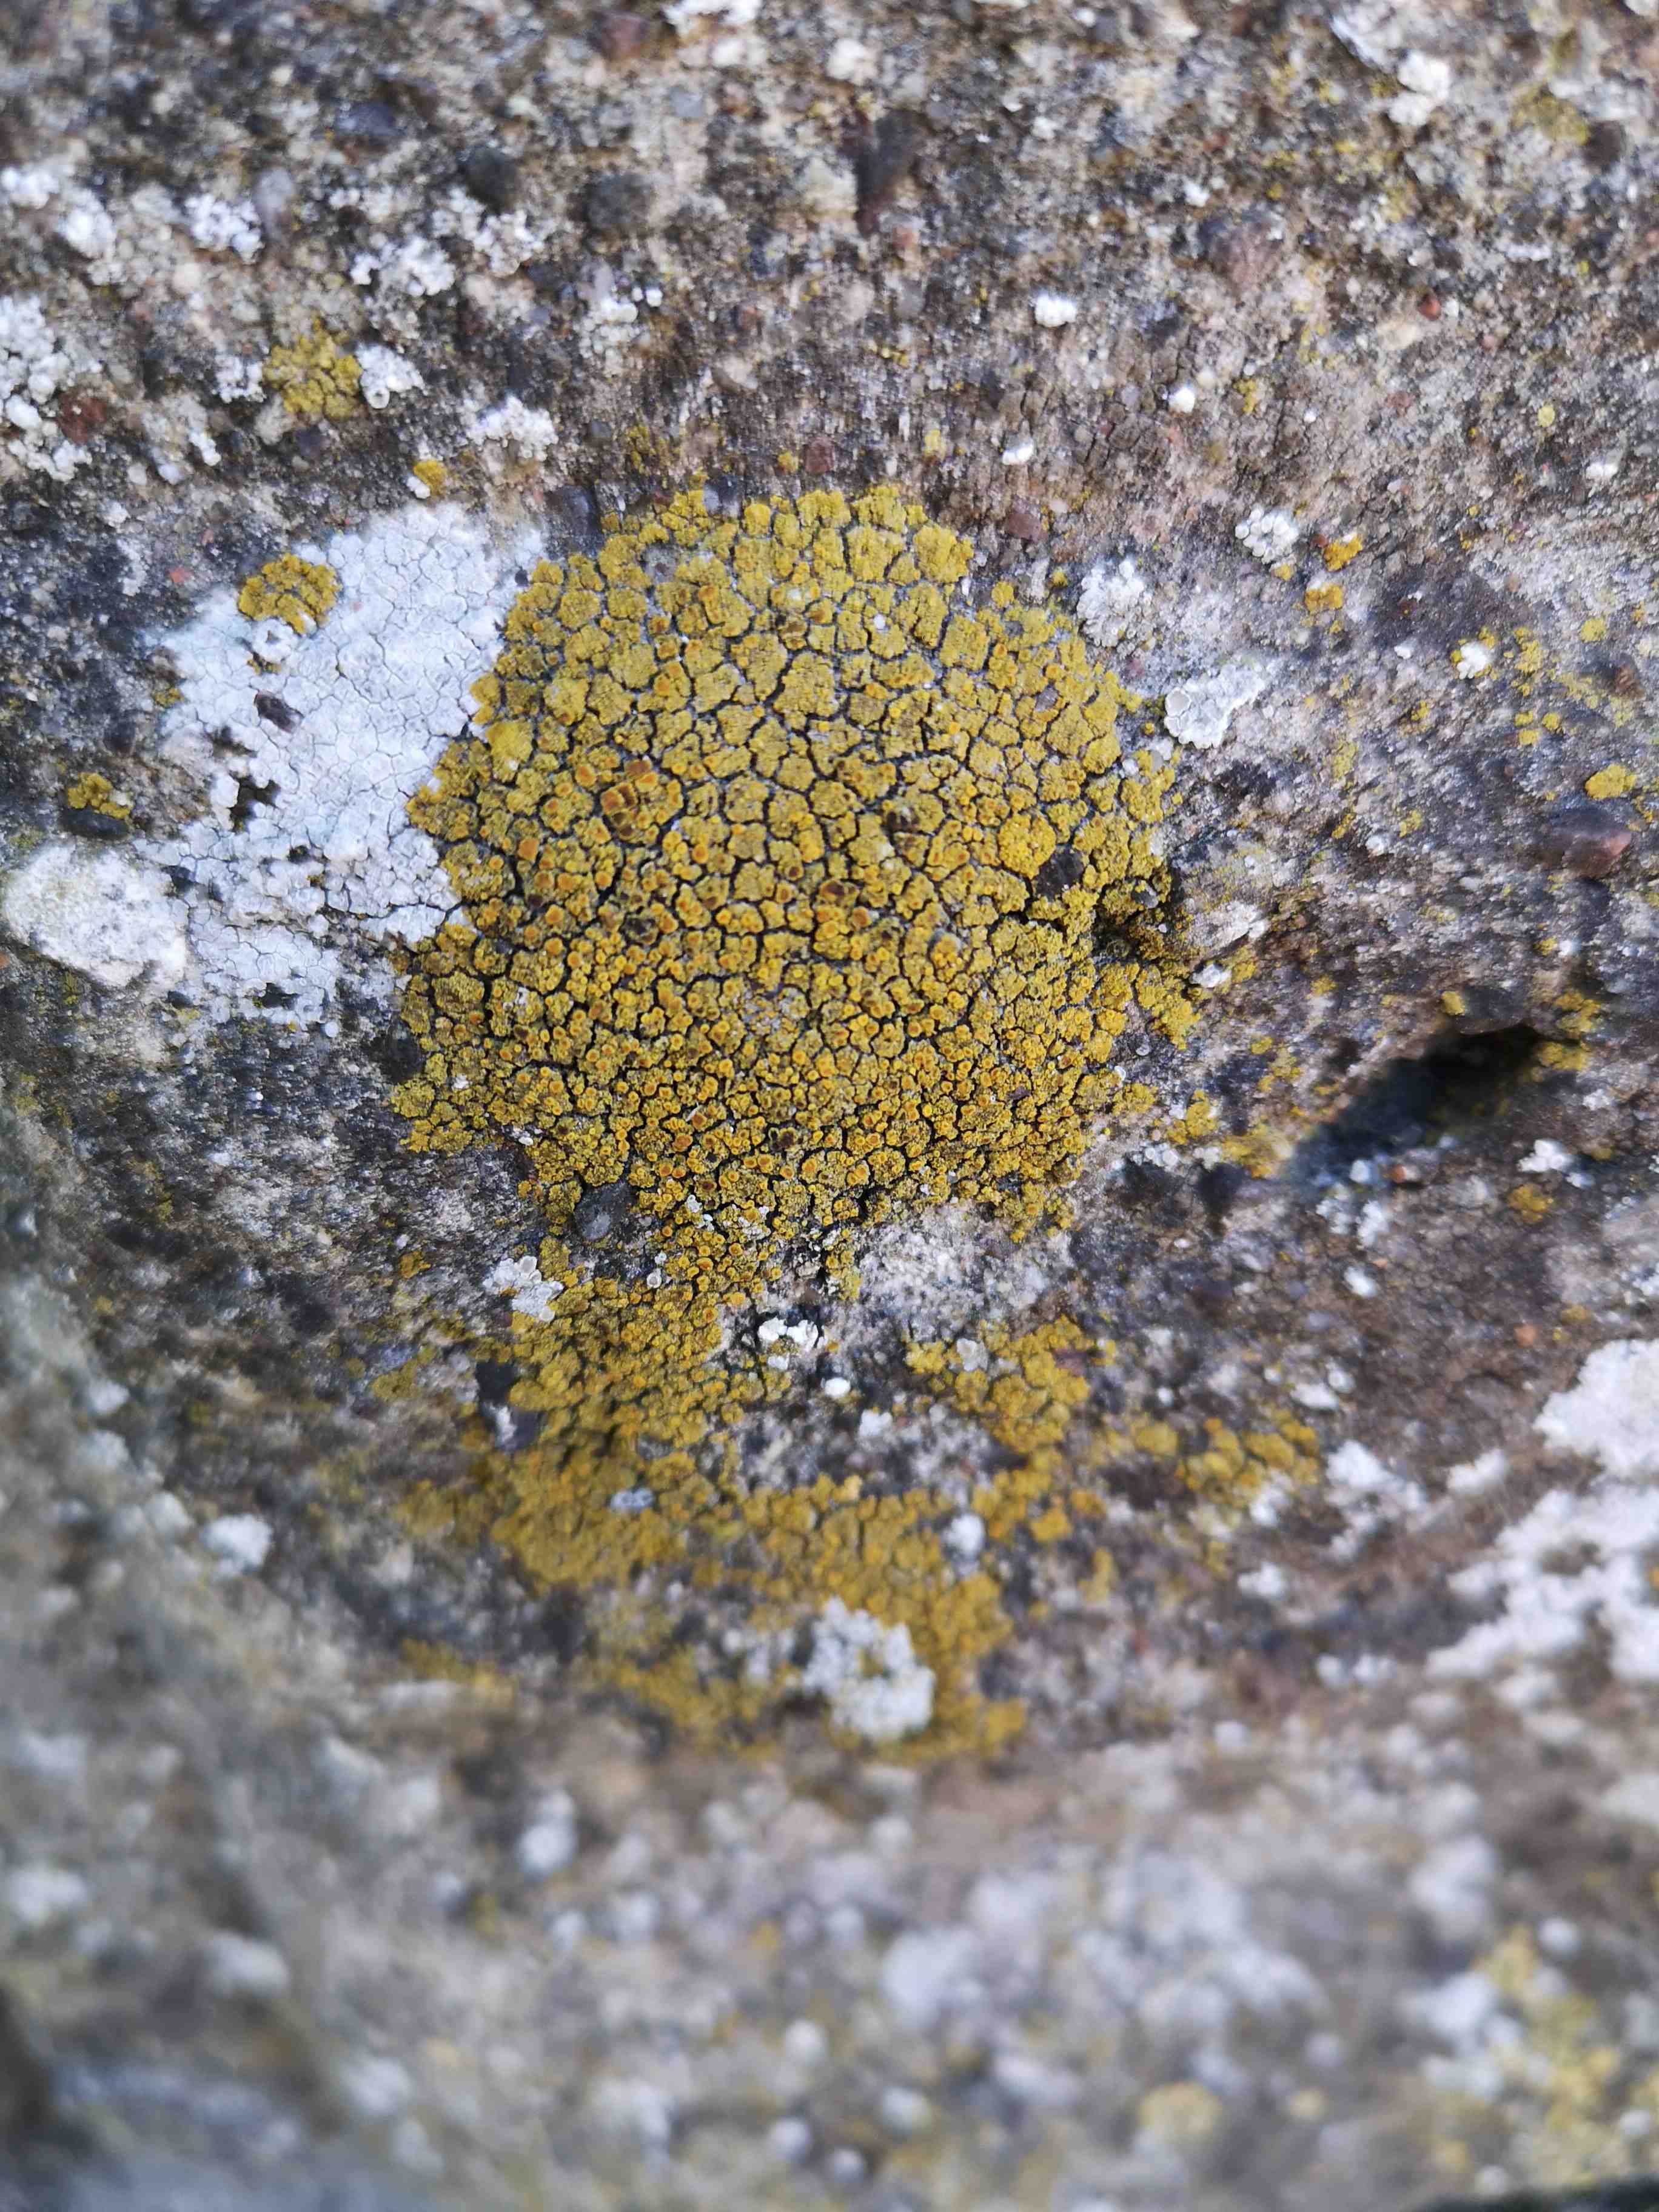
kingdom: Fungi
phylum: Ascomycota
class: Candelariomycetes
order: Candelariales
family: Candelariaceae
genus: Candelariella
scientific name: Candelariella vitellina
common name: almindelig æggeblommelav
